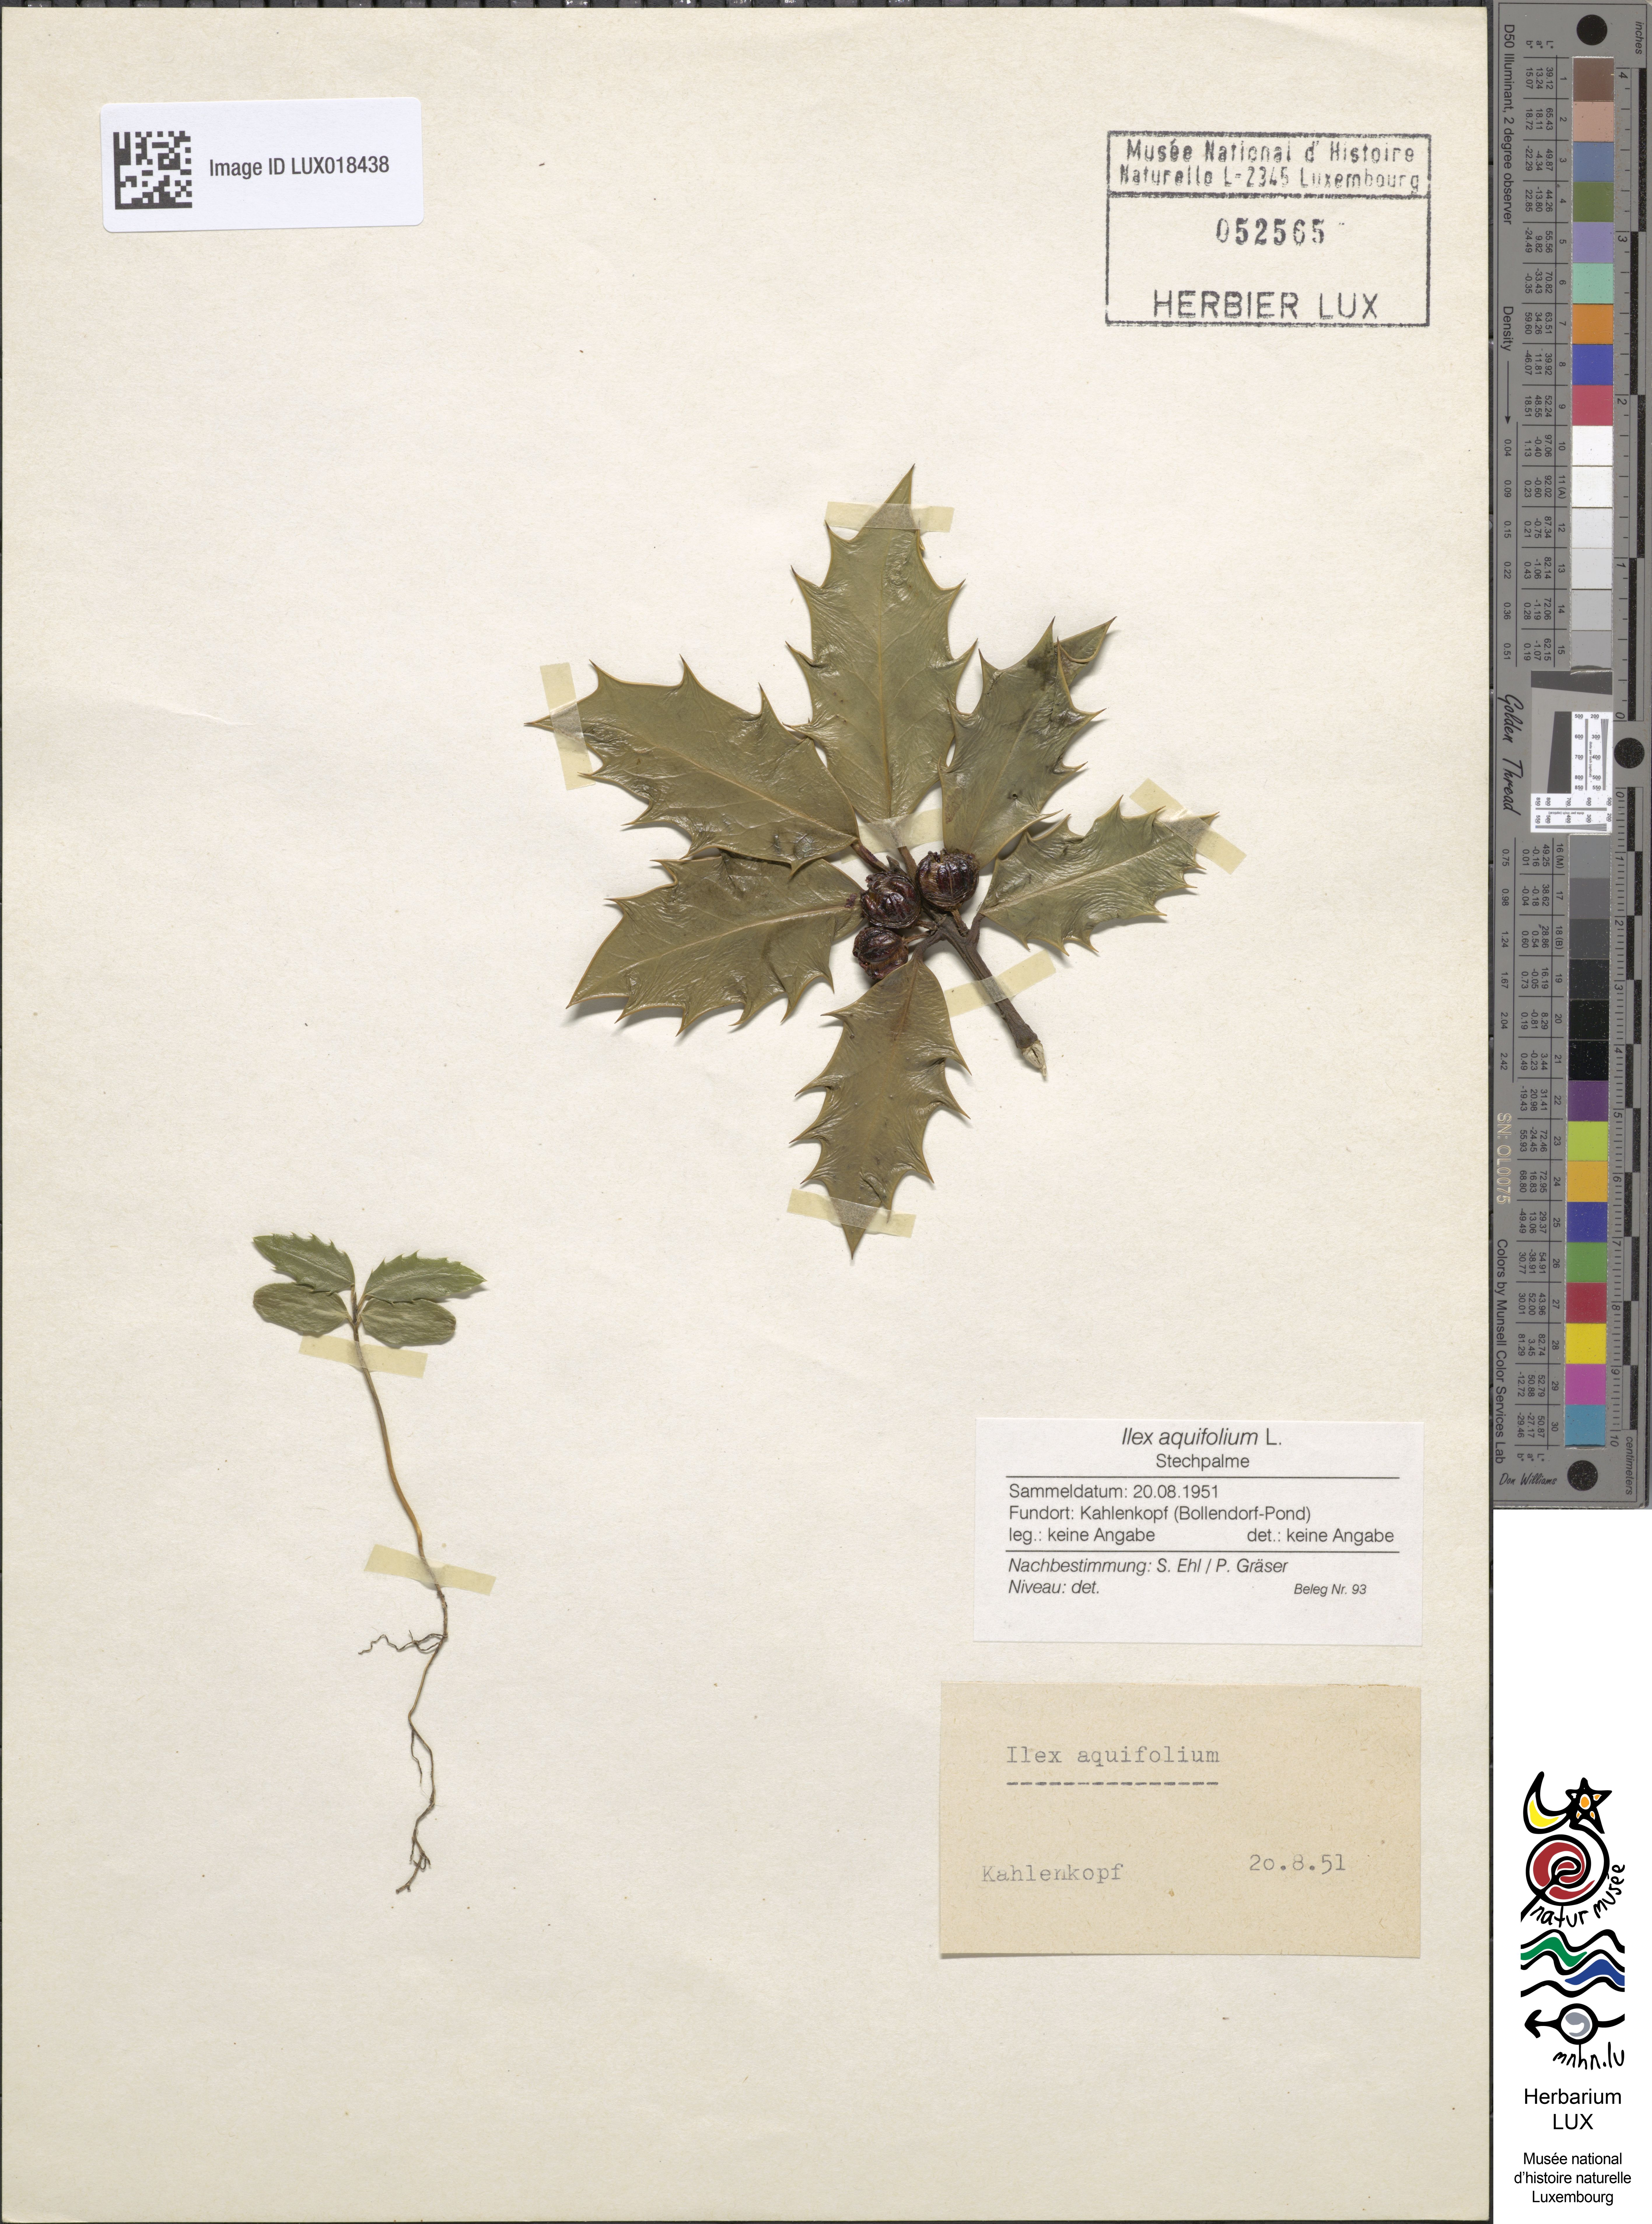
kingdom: Plantae
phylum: Tracheophyta
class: Magnoliopsida
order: Aquifoliales
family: Aquifoliaceae
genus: Ilex
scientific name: Ilex aquifolium
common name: English holly
